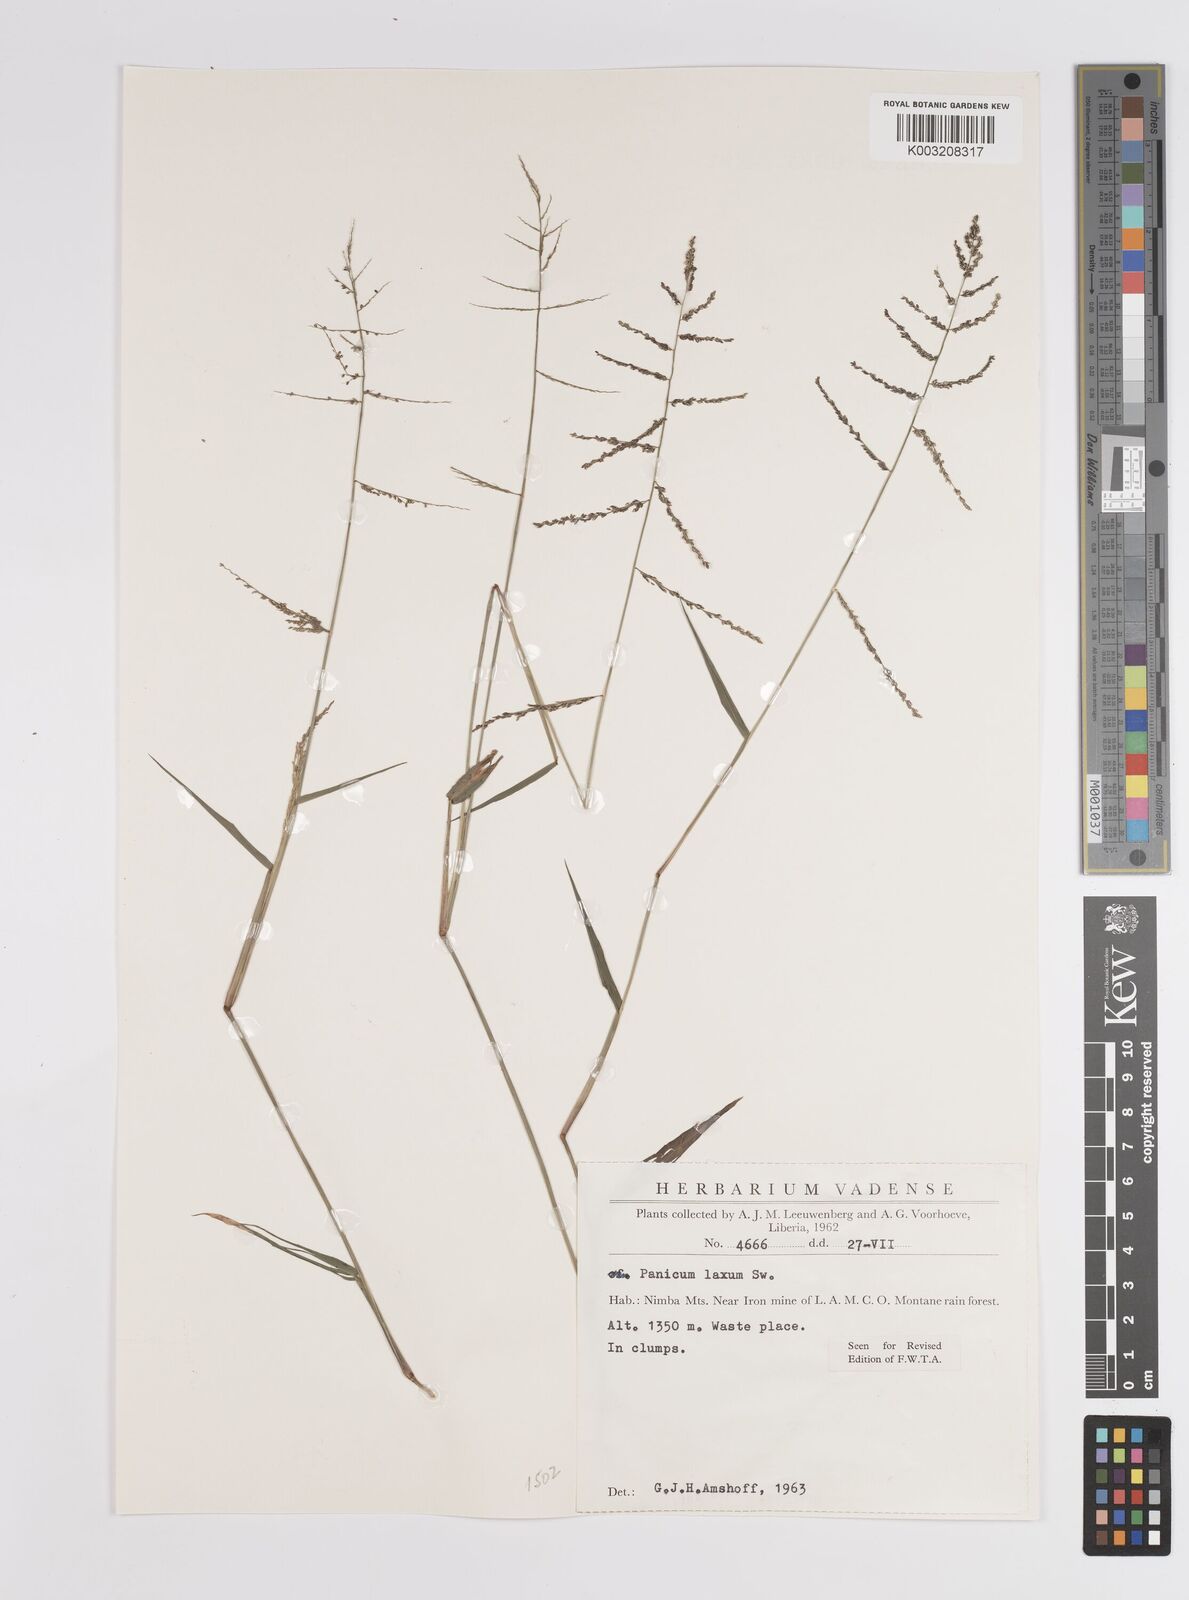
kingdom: Plantae
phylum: Tracheophyta
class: Liliopsida
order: Poales
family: Poaceae
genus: Steinchisma
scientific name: Steinchisma laxum
